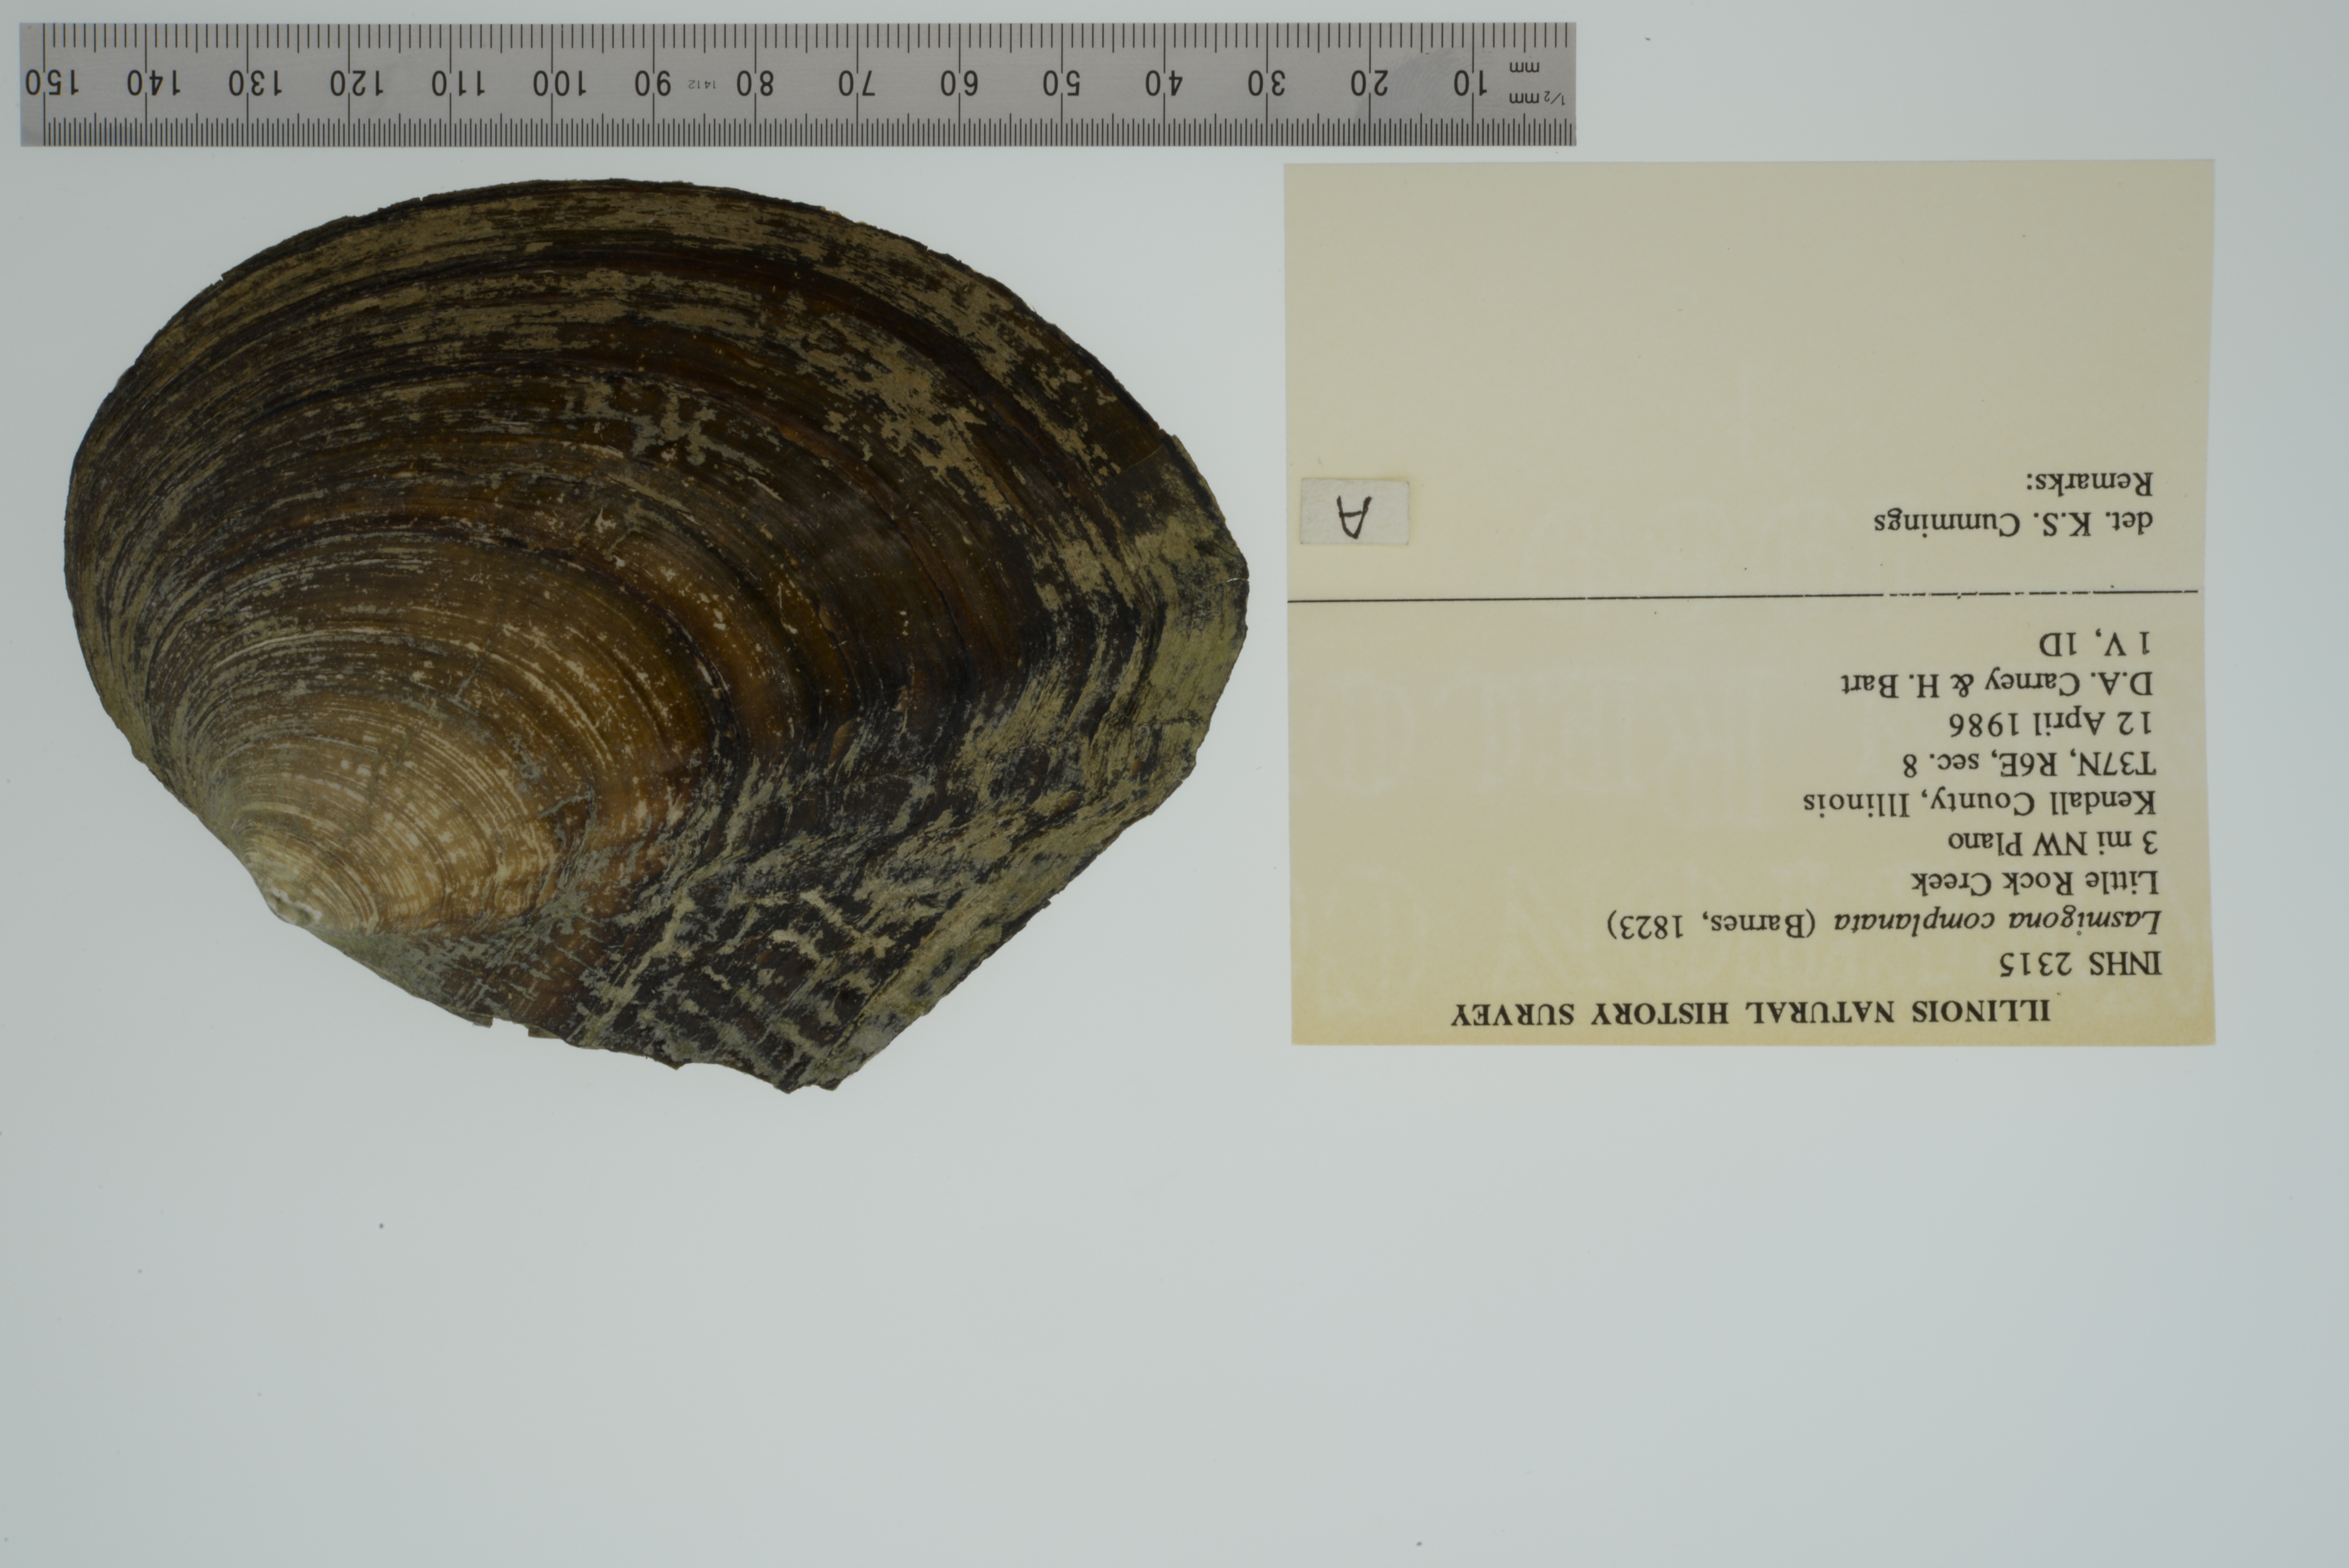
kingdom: Animalia
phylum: Mollusca
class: Bivalvia
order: Unionida
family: Unionidae
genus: Lasmigona
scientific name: Lasmigona complanata
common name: White heelsplitter
